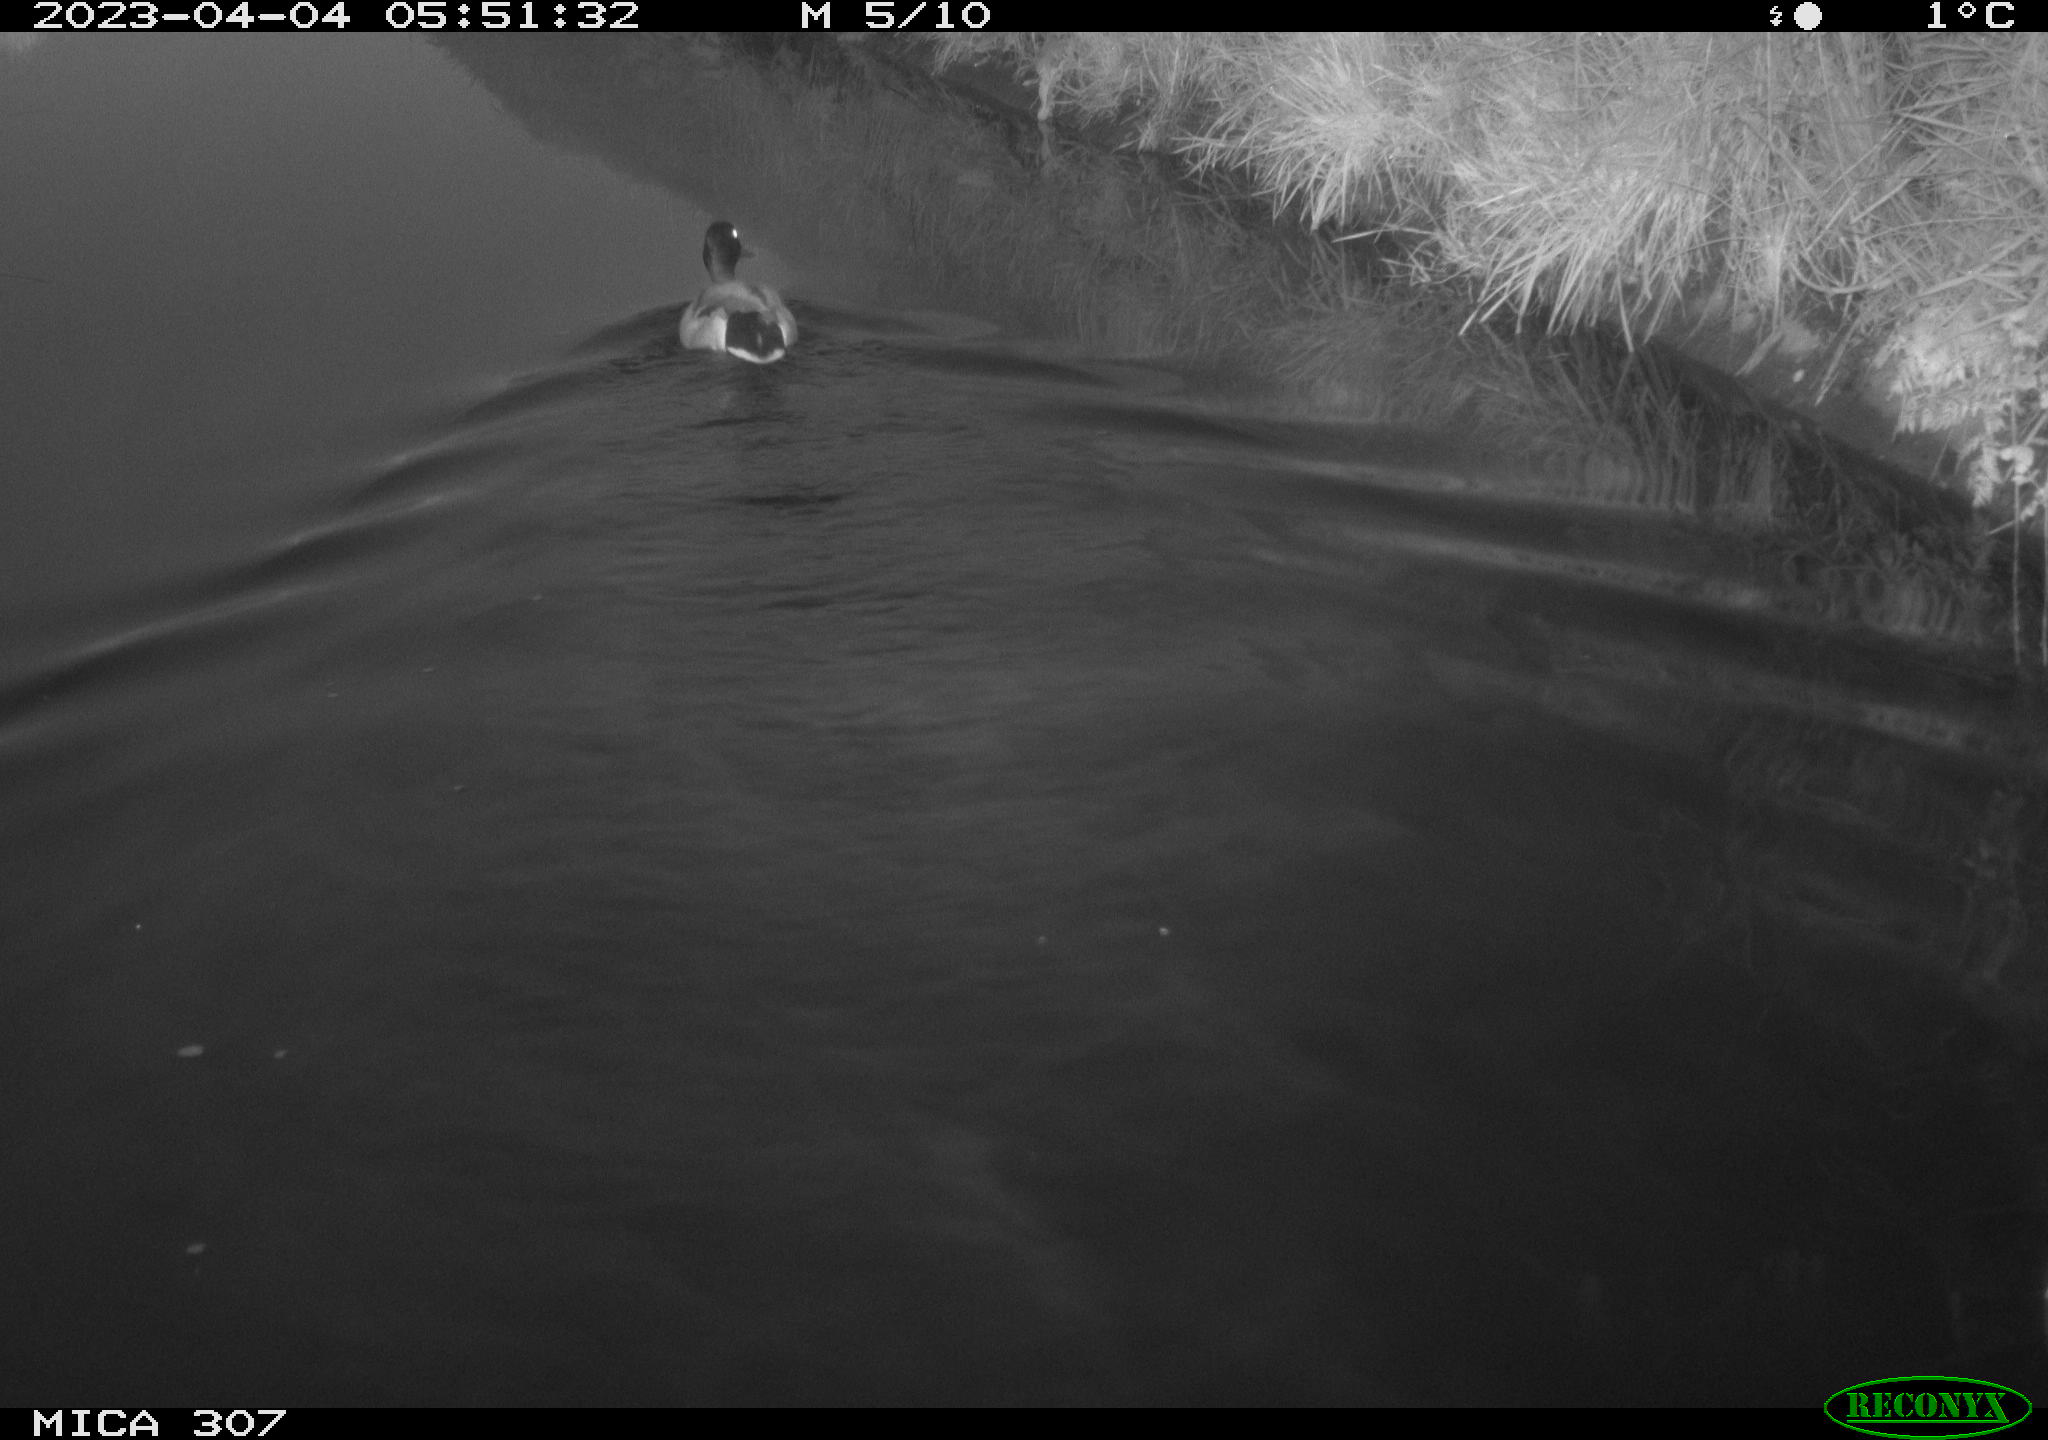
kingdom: Animalia
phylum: Chordata
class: Aves
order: Anseriformes
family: Anatidae
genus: Anas
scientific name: Anas
